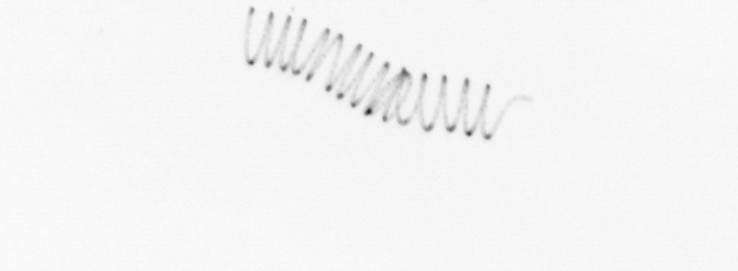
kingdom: Chromista
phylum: Ochrophyta
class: Bacillariophyceae
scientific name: Bacillariophyceae
